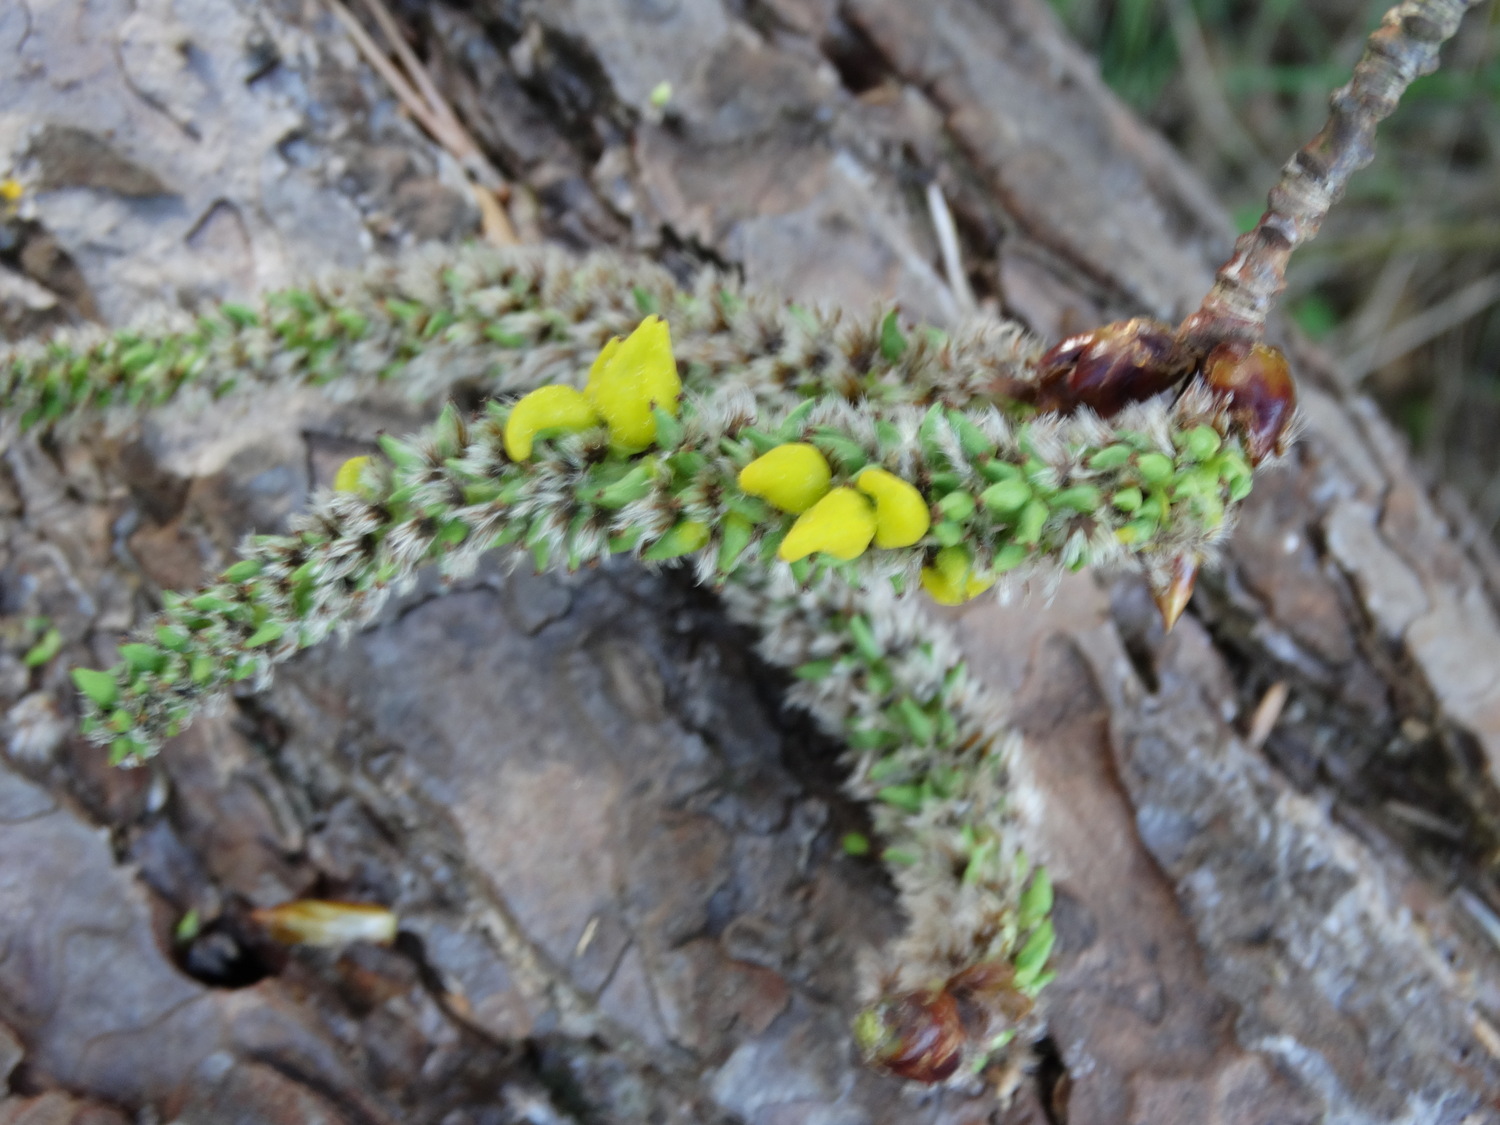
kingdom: Fungi
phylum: Ascomycota
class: Taphrinomycetes
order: Taphrinales
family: Taphrinaceae
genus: Taphrina
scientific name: Taphrina johansonii
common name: Aspen tongue
